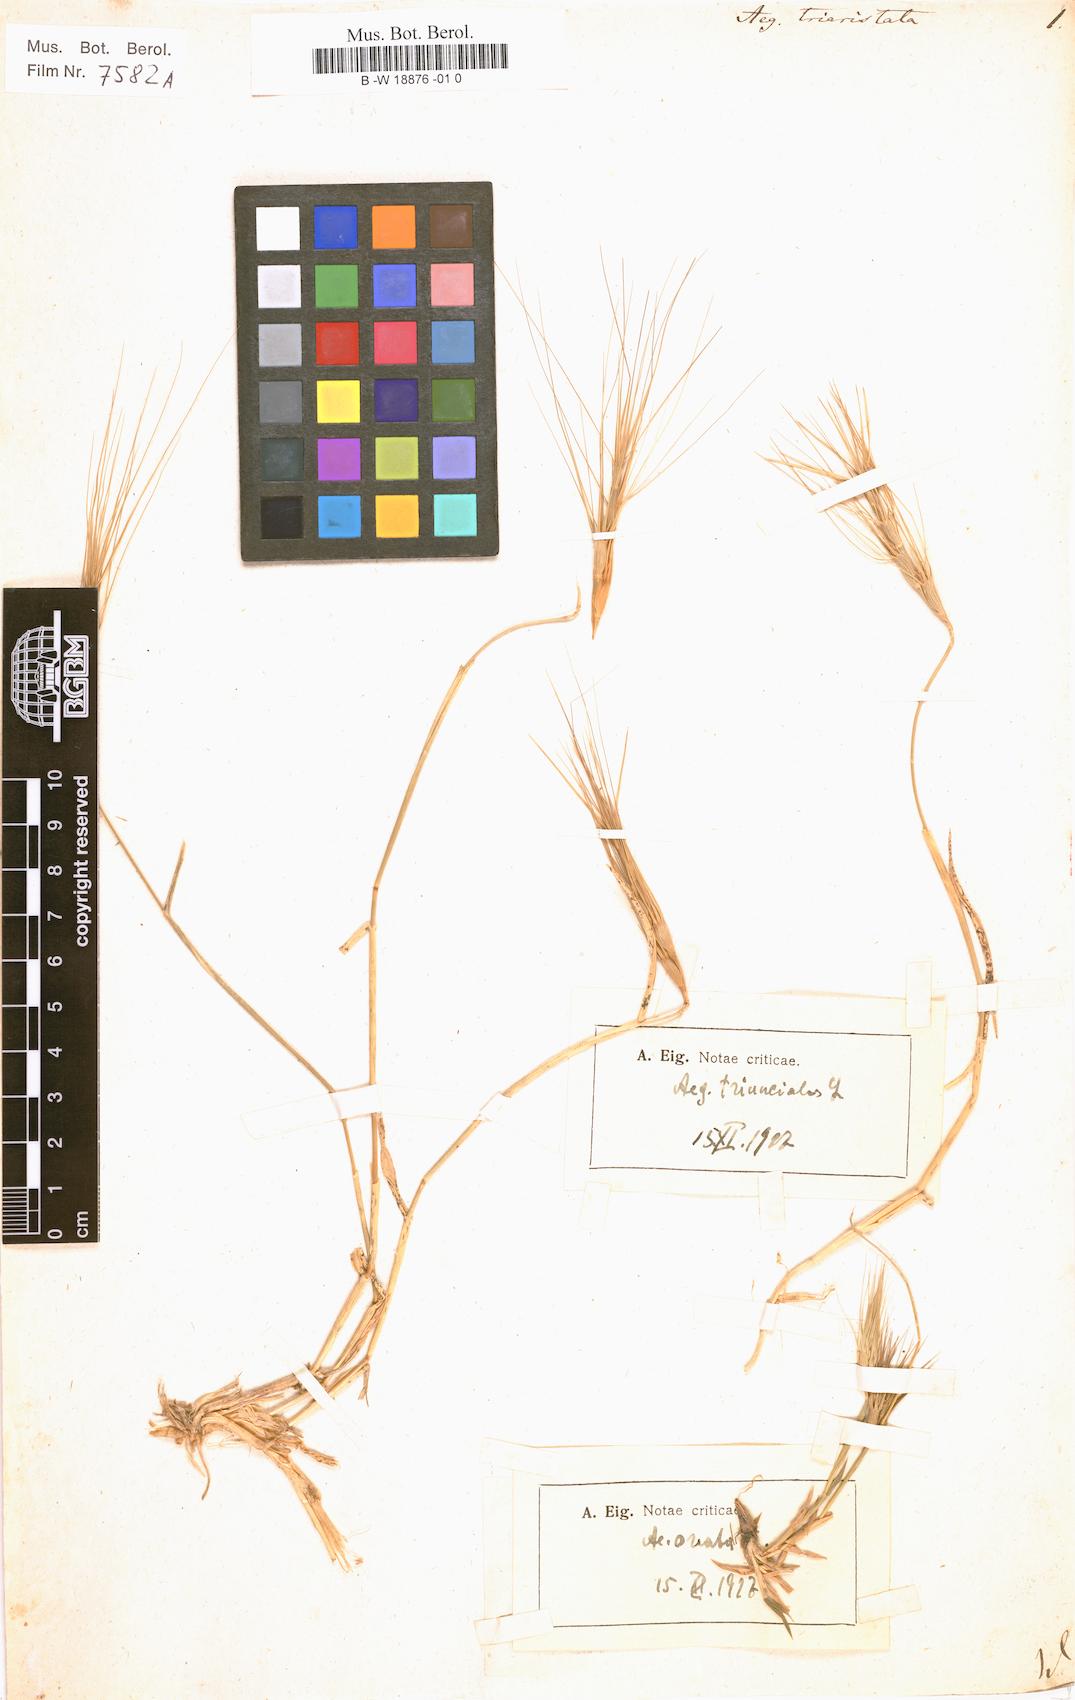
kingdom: Plantae
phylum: Tracheophyta
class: Liliopsida
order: Poales
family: Poaceae
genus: Aegilops
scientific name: Aegilops neglecta
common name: Three-awn goat grass
